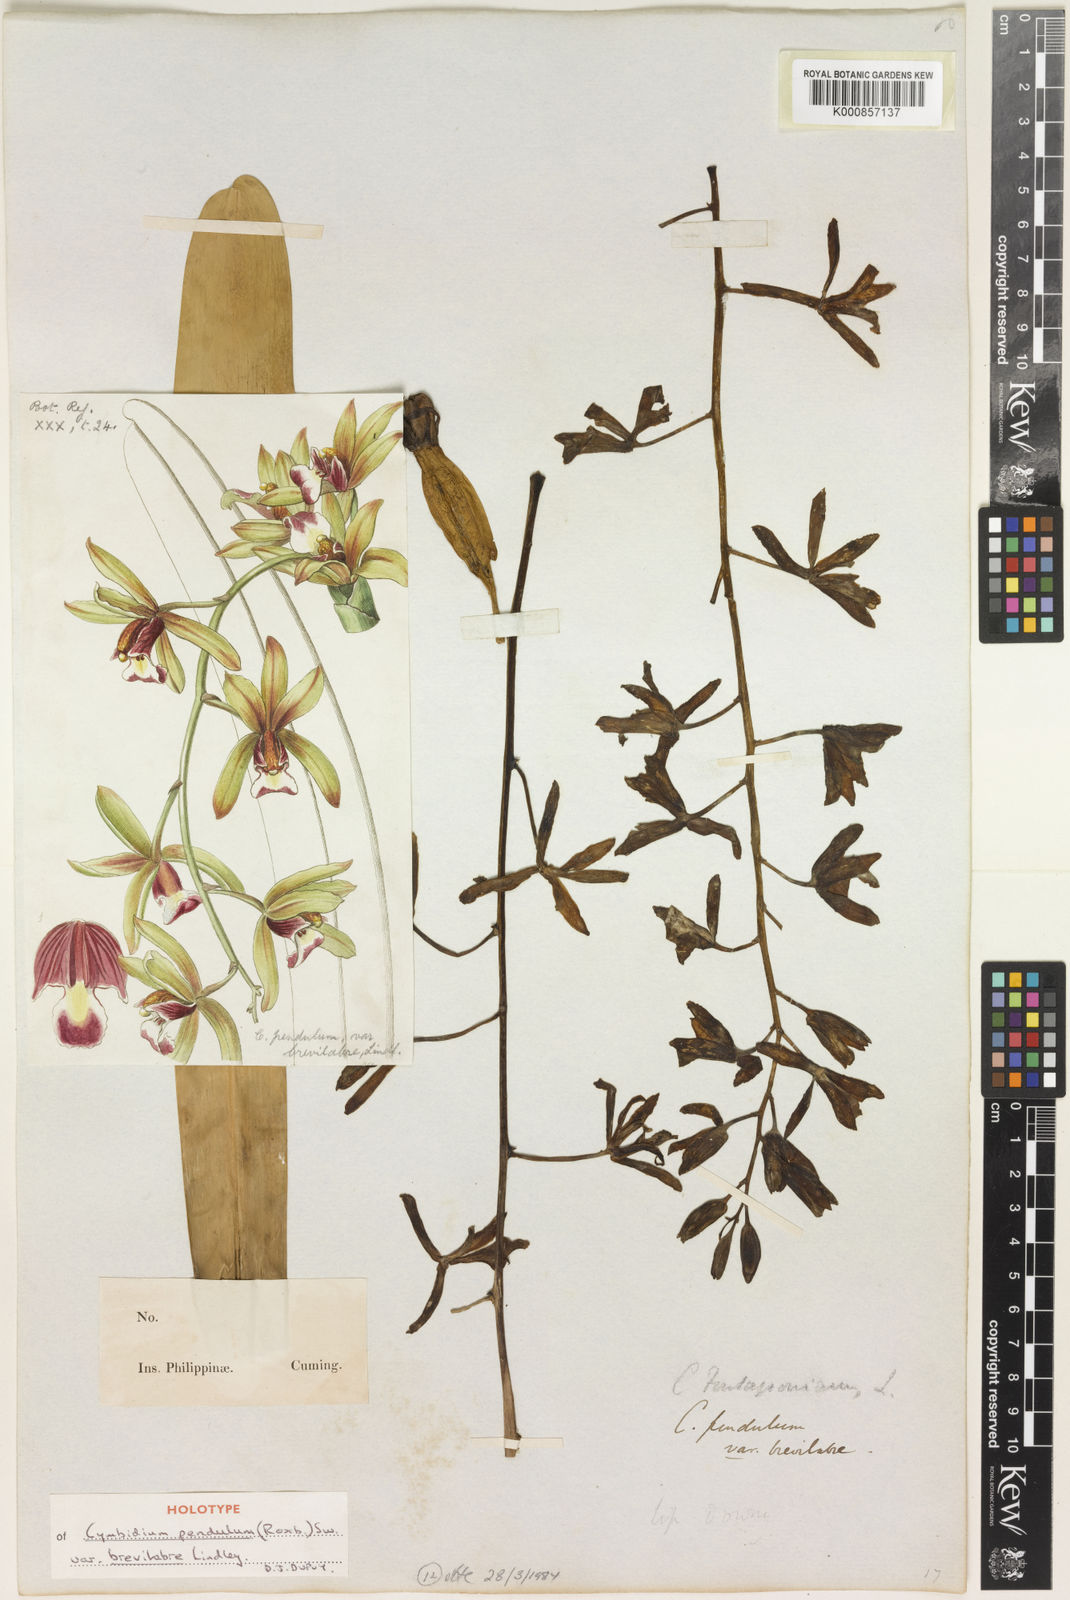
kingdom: Plantae
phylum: Tracheophyta
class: Liliopsida
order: Asparagales
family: Orchidaceae
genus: Cymbidium
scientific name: Cymbidium aloifolium
